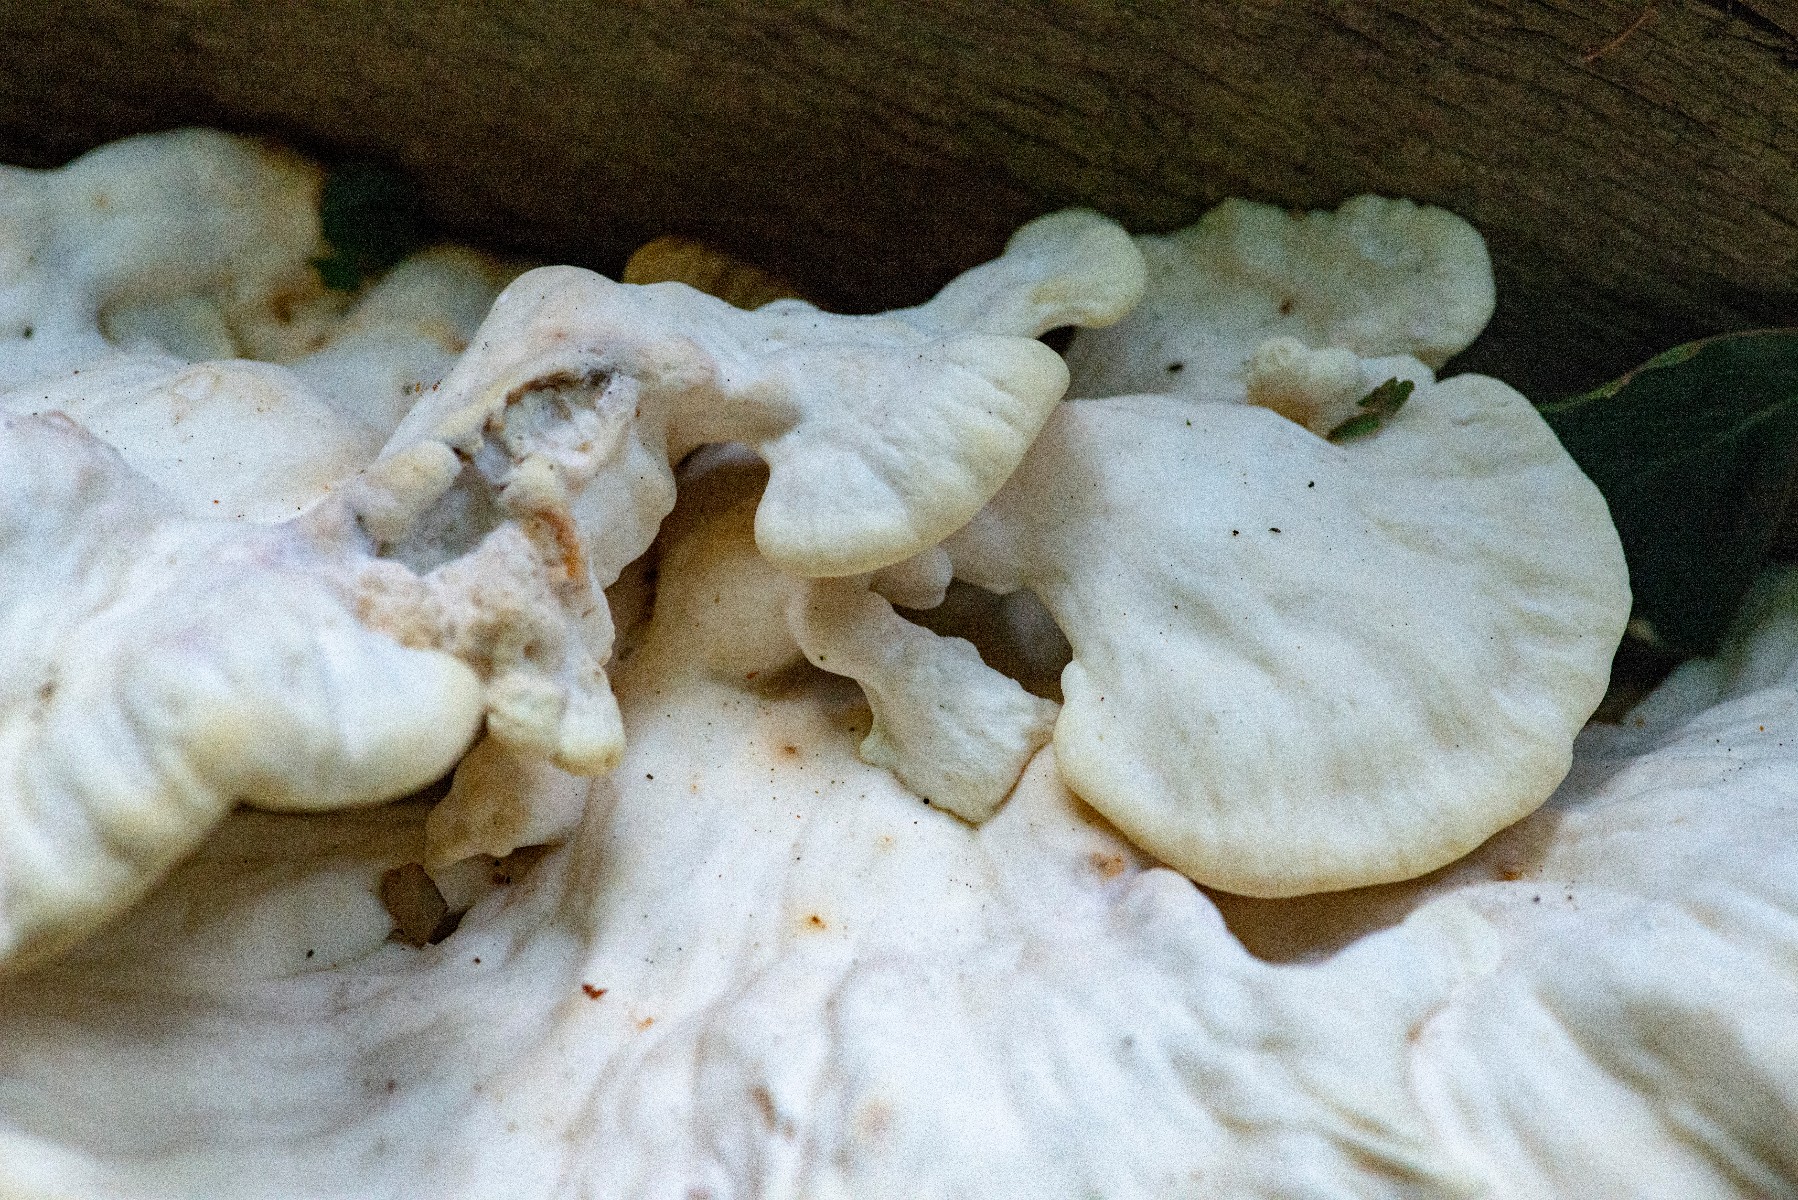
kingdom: Fungi
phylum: Basidiomycota
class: Agaricomycetes
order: Polyporales
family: Laetiporaceae
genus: Laetiporus
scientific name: Laetiporus
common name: svovlporesvamp
